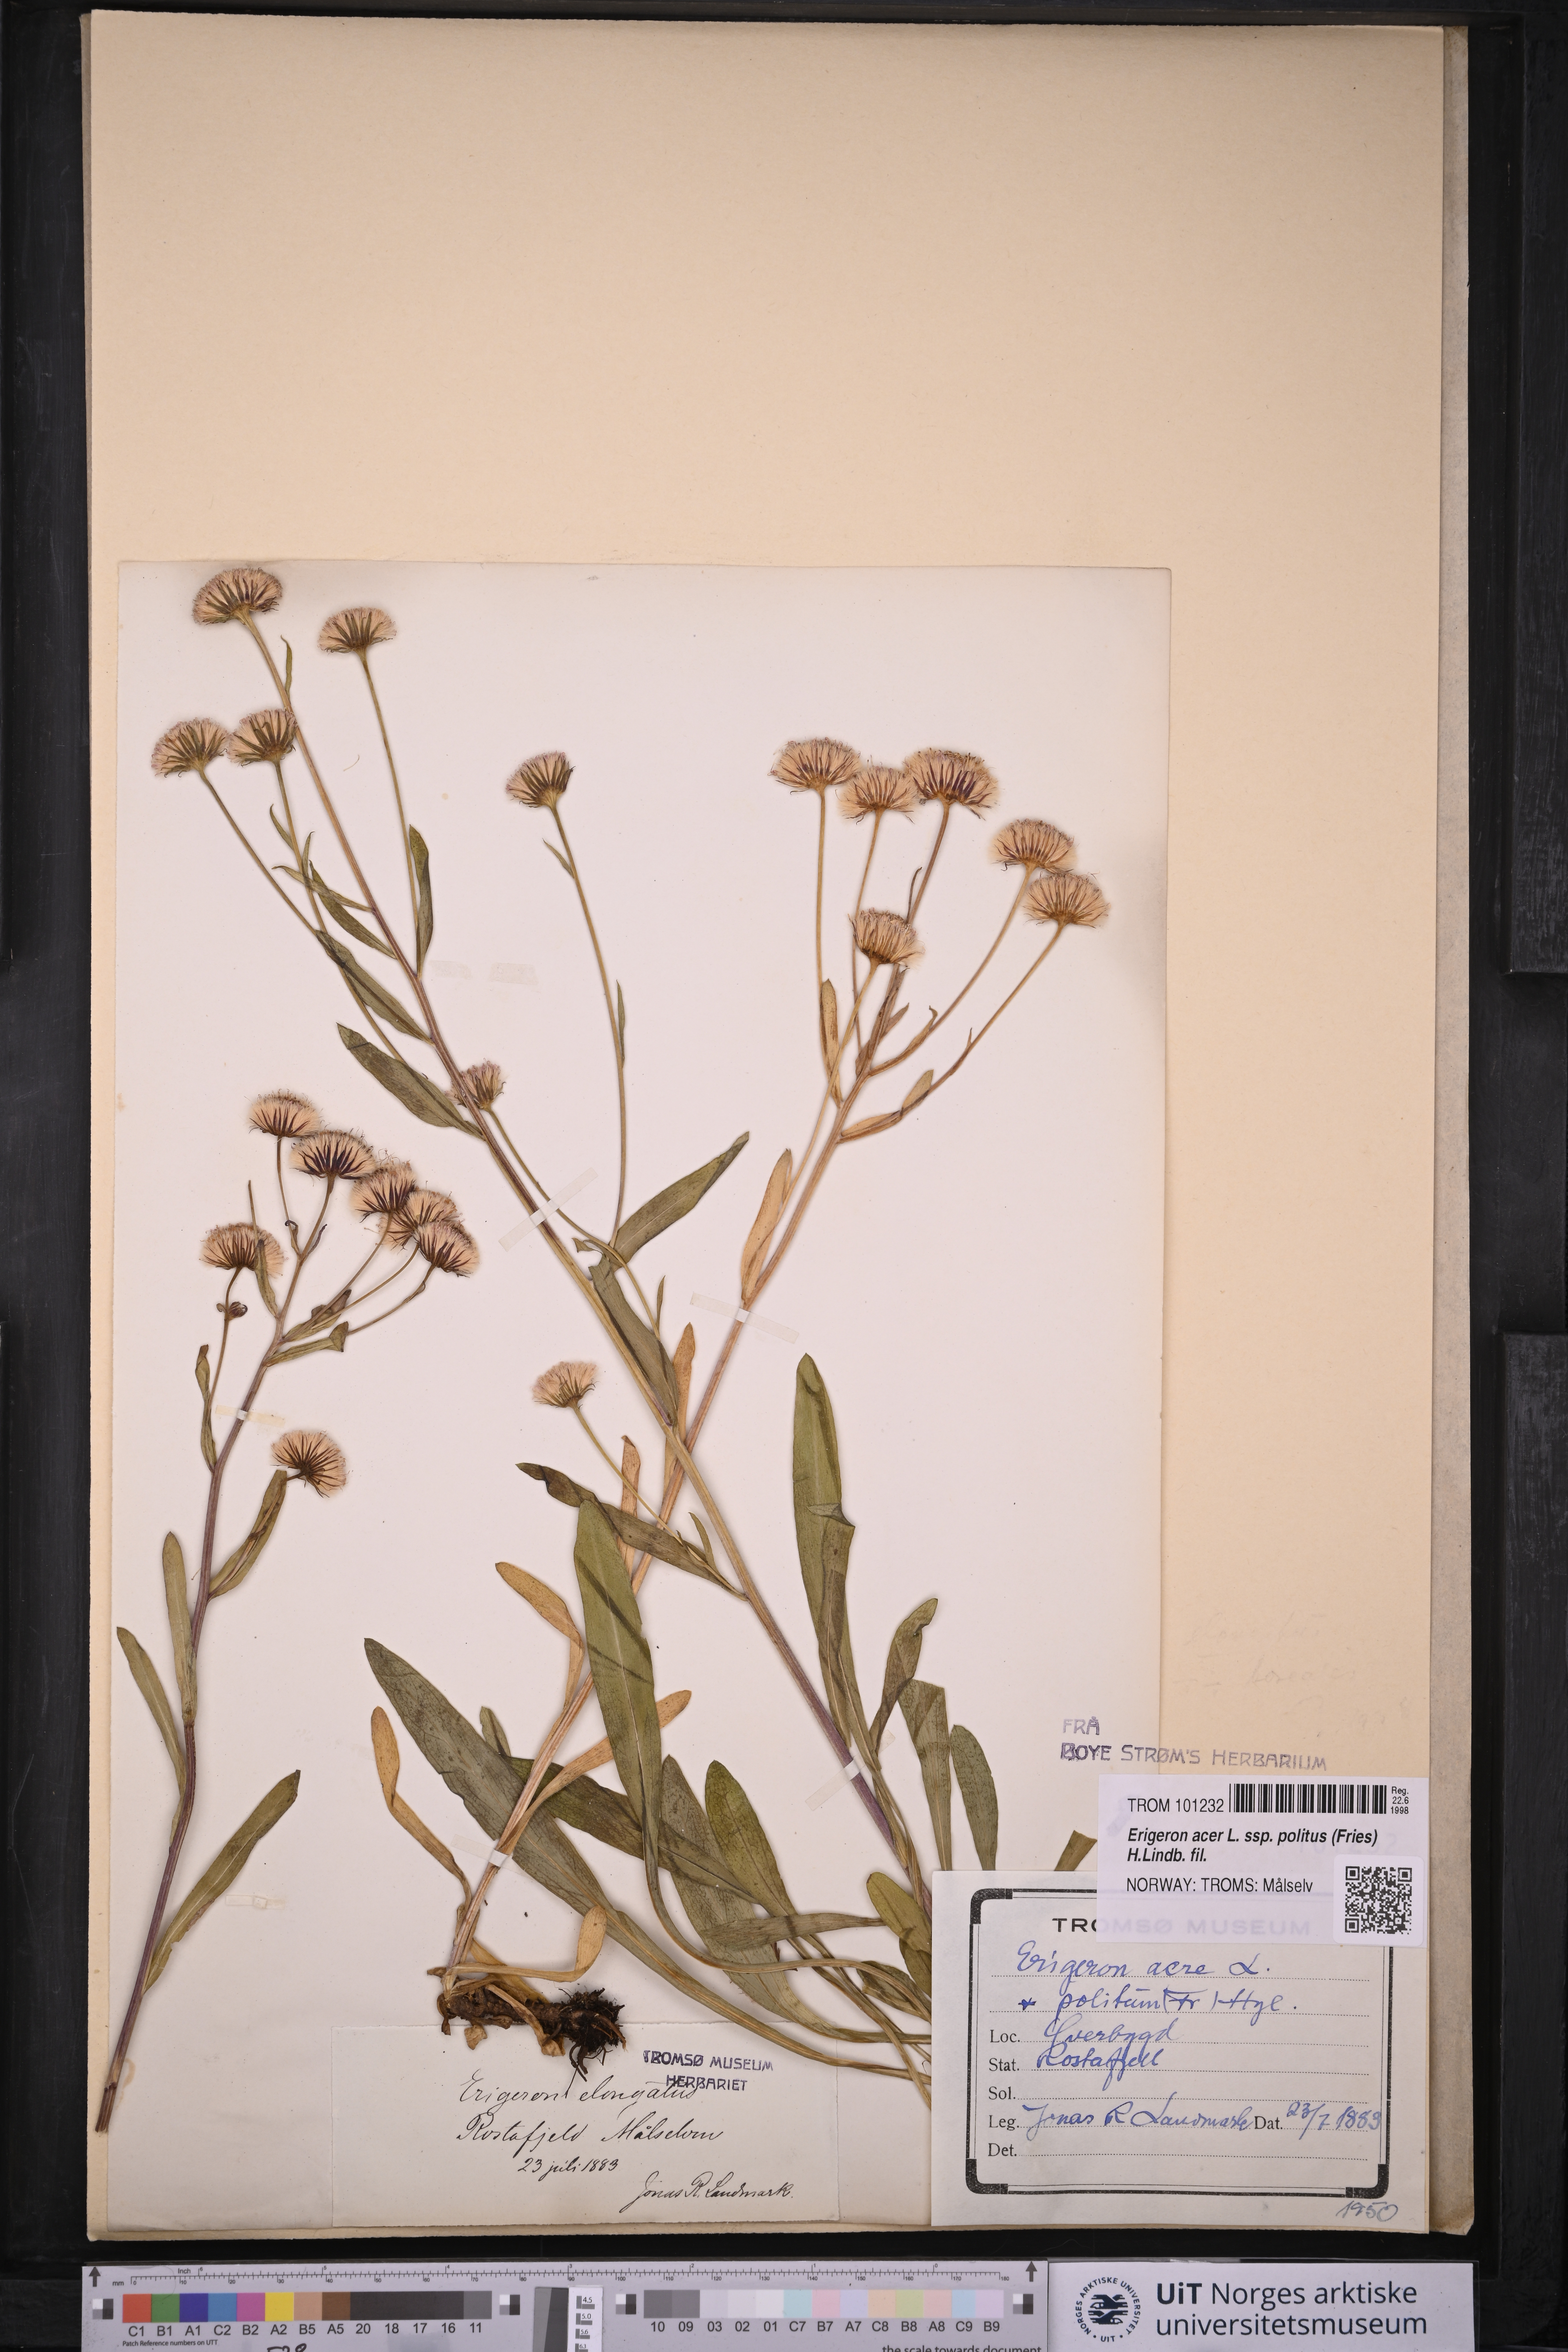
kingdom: Plantae
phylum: Tracheophyta
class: Magnoliopsida
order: Asterales
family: Asteraceae
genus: Erigeron
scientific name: Erigeron politus
